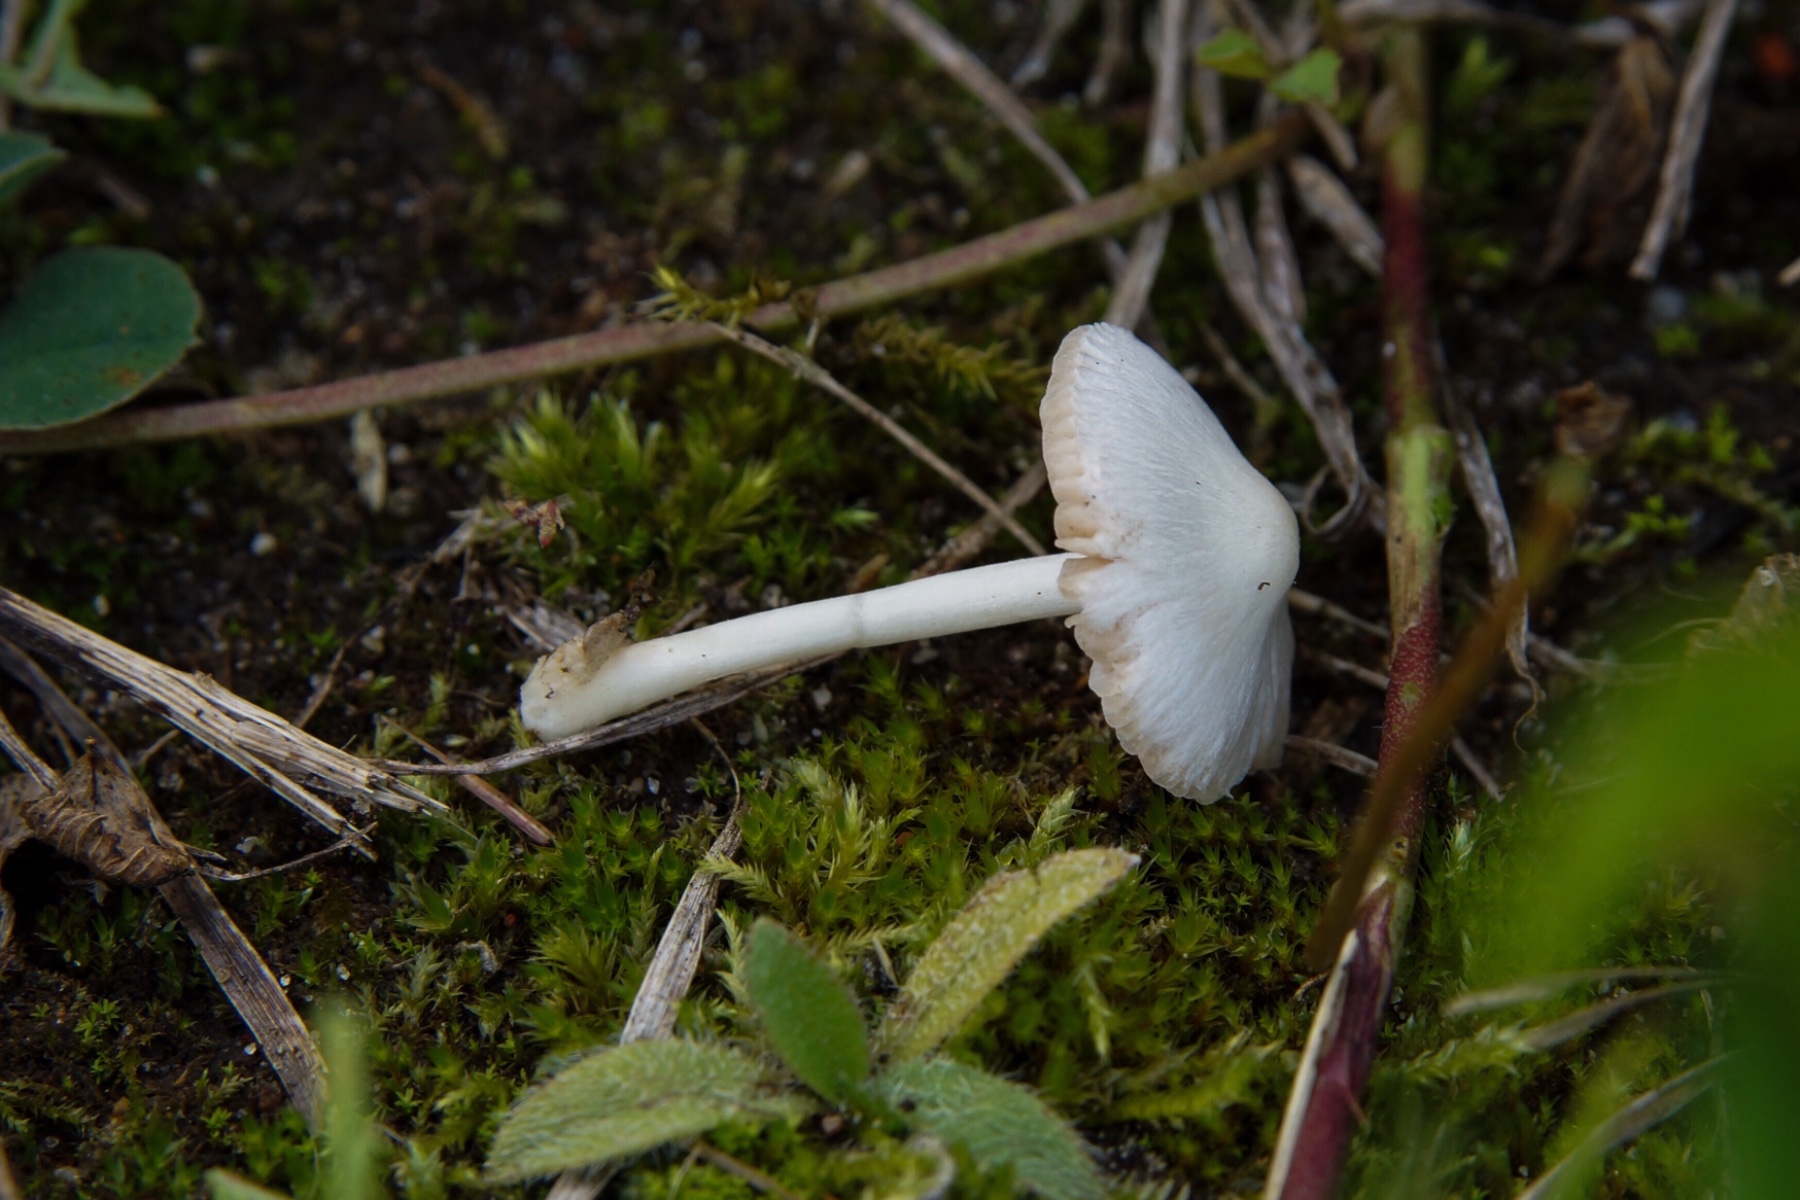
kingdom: Fungi
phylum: Basidiomycota
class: Agaricomycetes
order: Agaricales
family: Pluteaceae
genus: Volvariella
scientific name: Volvariella pusilla
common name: liden posesvamp
